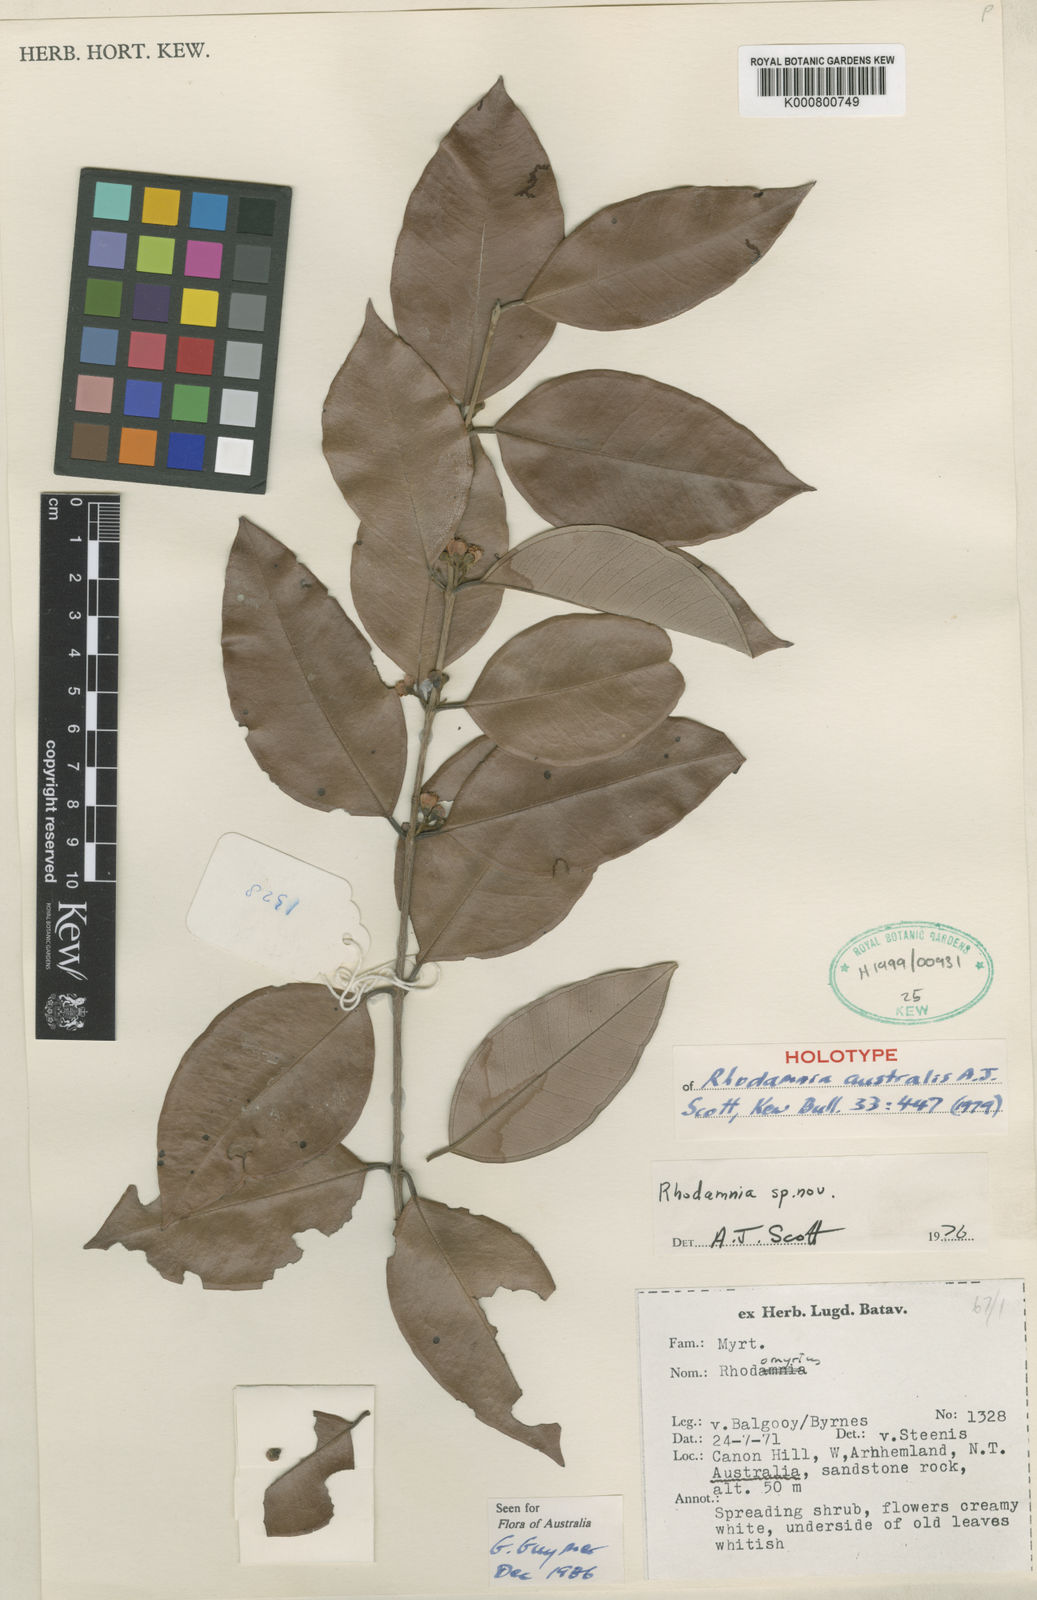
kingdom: Plantae
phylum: Tracheophyta
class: Magnoliopsida
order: Myrtales
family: Myrtaceae
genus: Rhodamnia
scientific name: Rhodamnia australis
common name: Tropical ironwood
